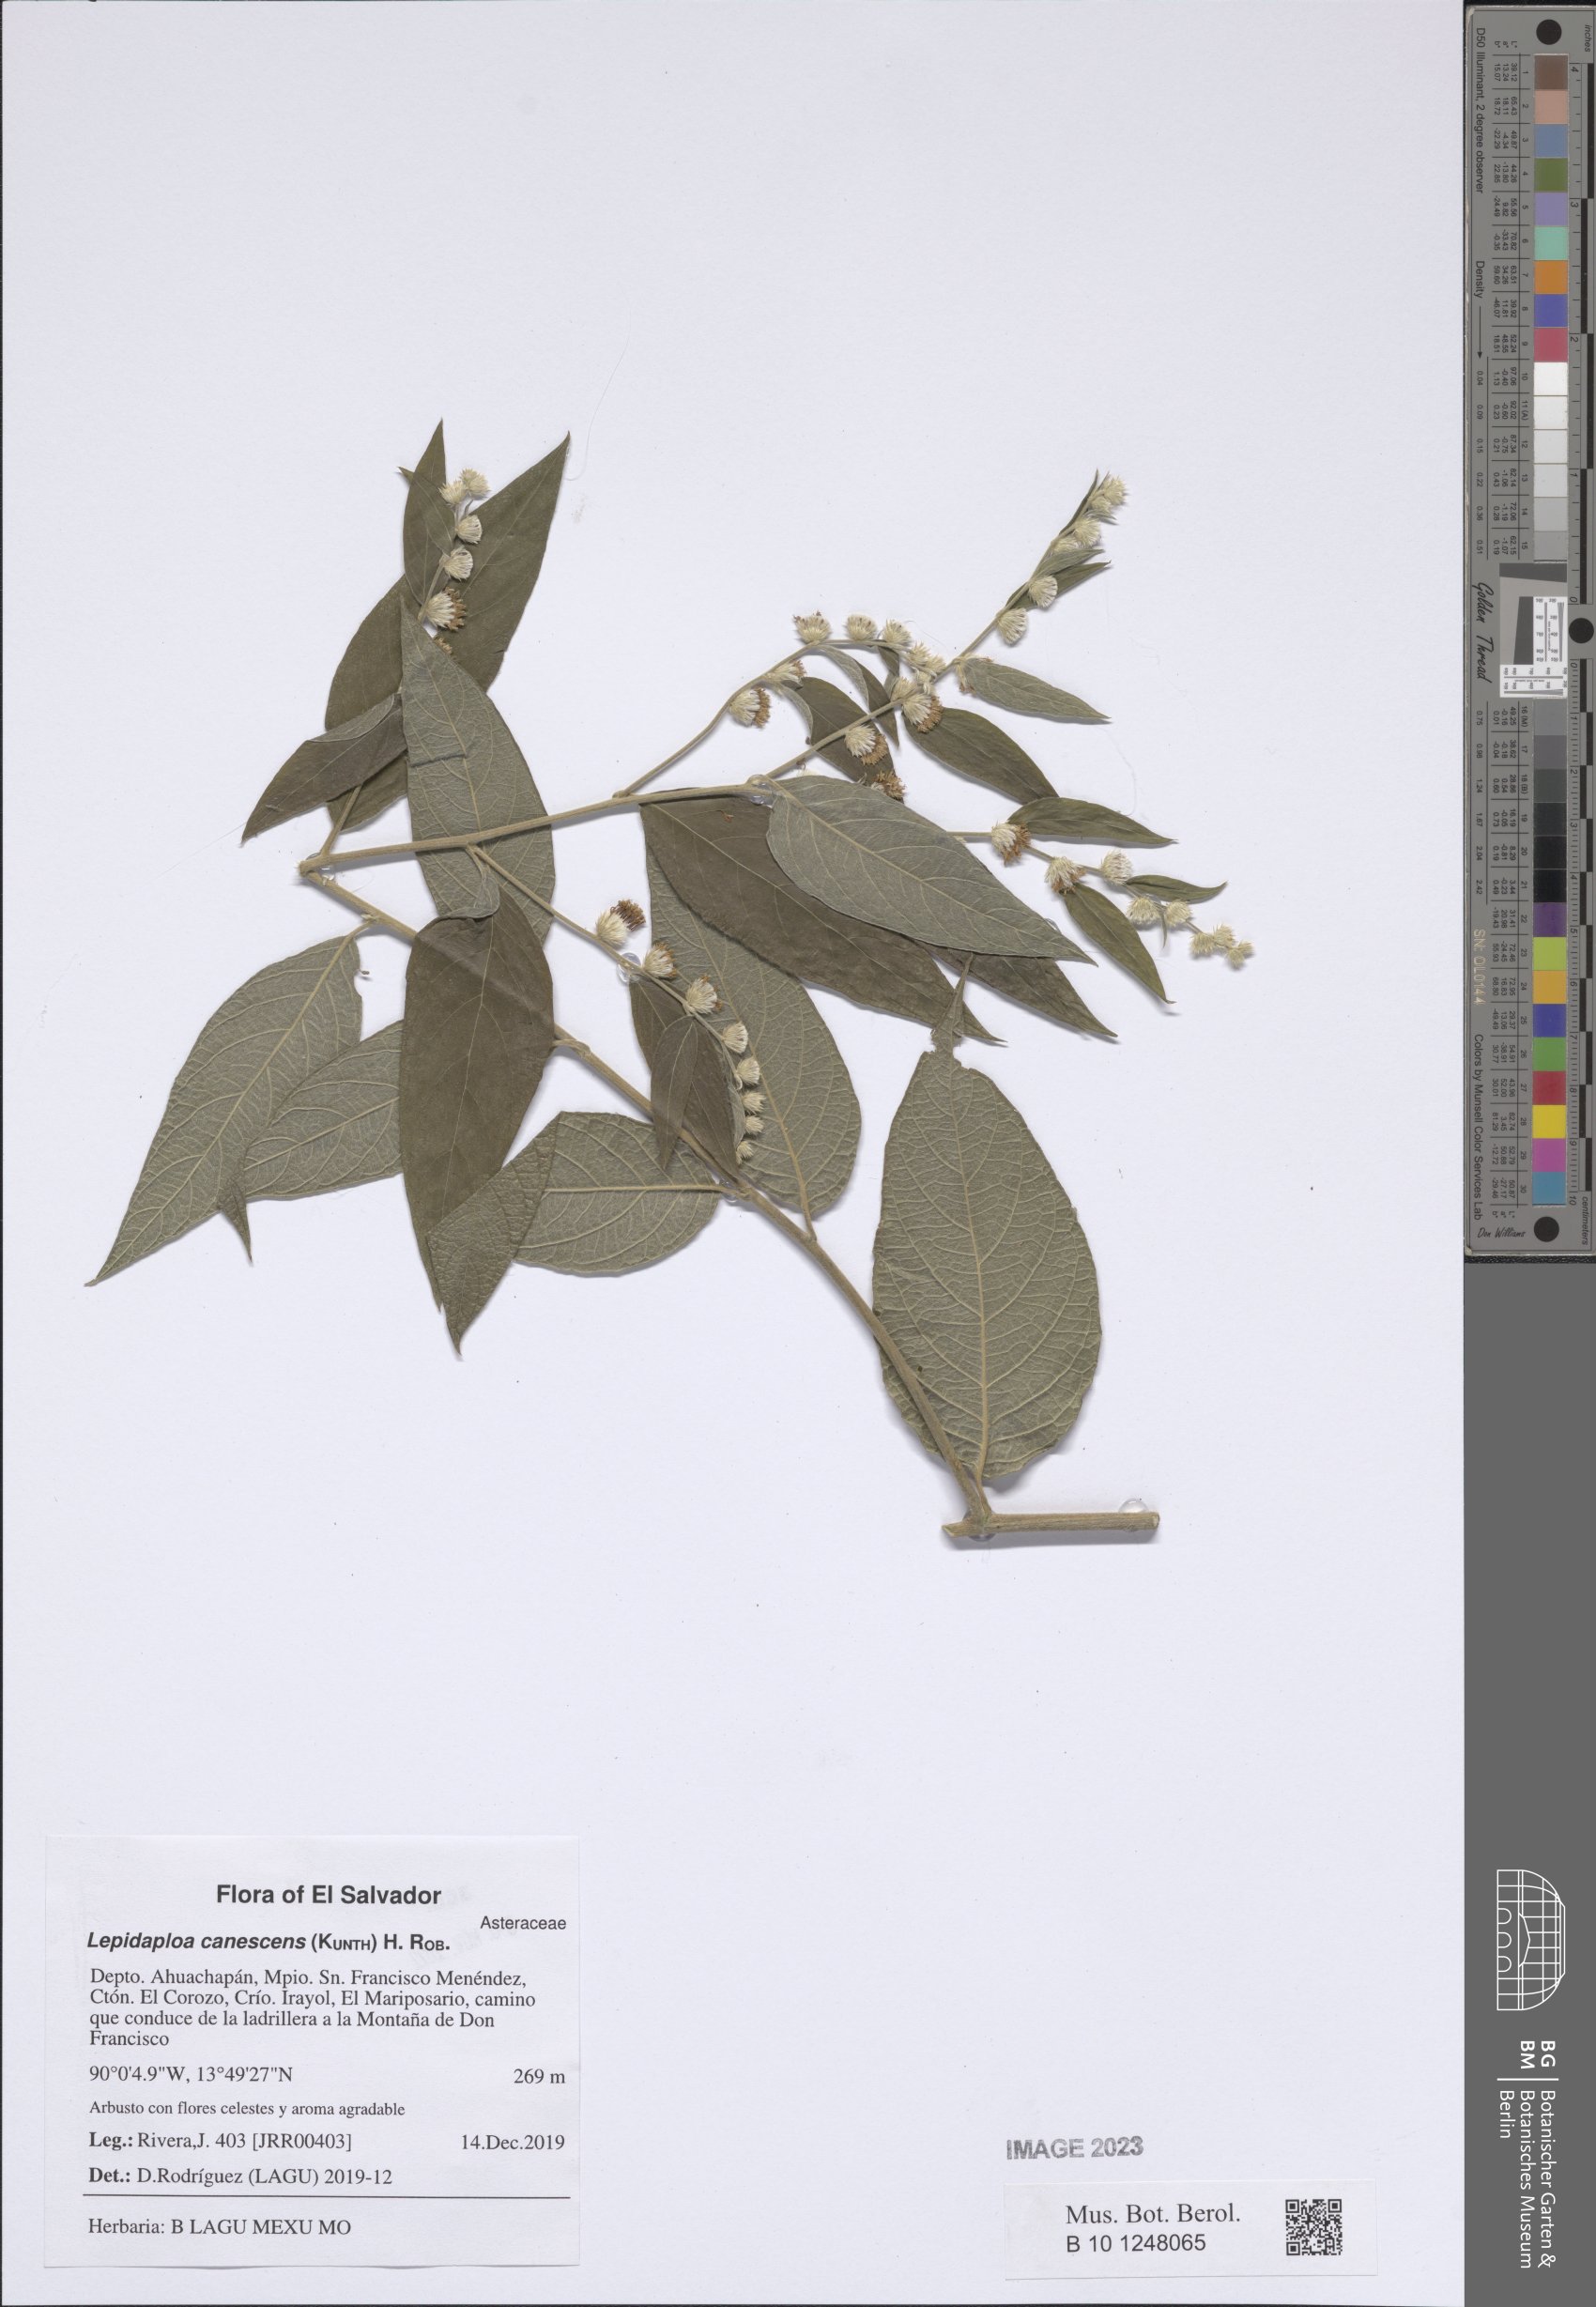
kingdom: Plantae
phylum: Tracheophyta
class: Magnoliopsida
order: Asterales
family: Asteraceae
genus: Lepidaploa
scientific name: Lepidaploa canescens
